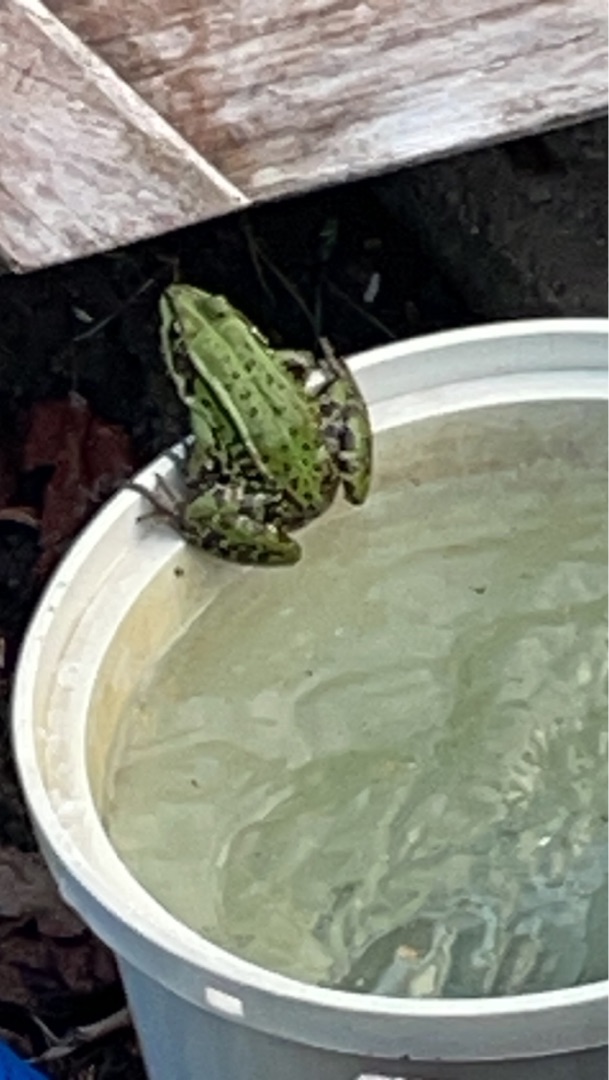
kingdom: Animalia
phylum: Chordata
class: Amphibia
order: Anura
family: Ranidae
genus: Pelophylax
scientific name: Pelophylax lessonae
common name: Grøn frø
